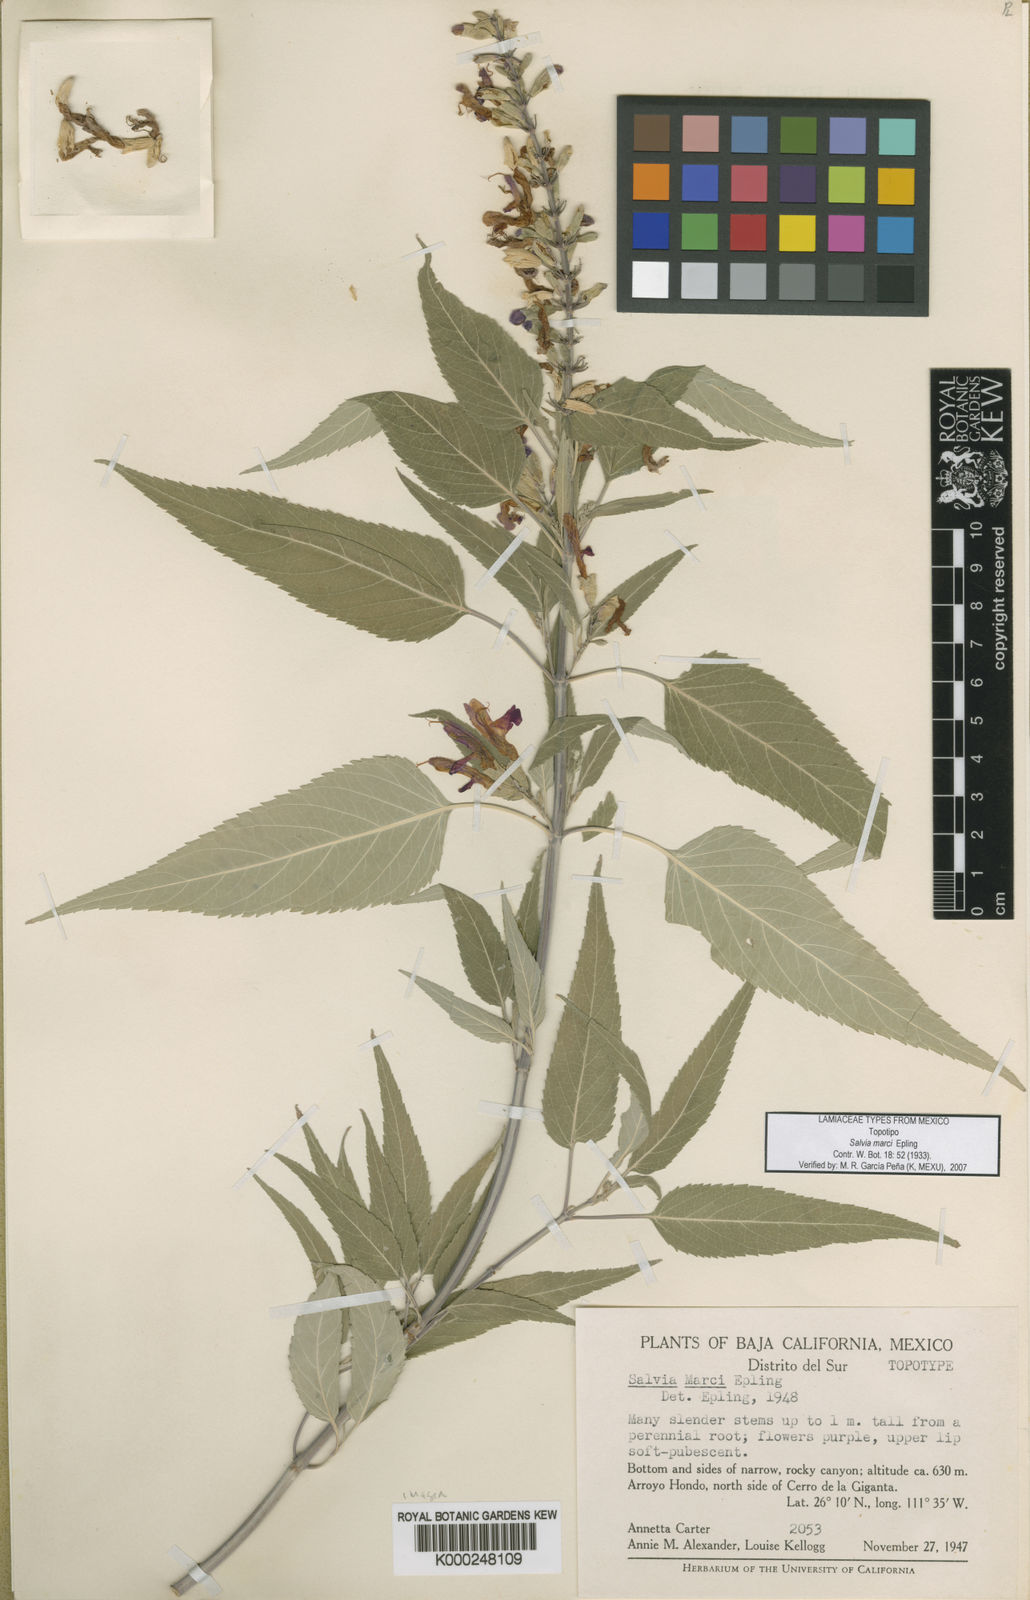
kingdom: Plantae
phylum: Tracheophyta
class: Magnoliopsida
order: Lamiales
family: Lamiaceae
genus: Salvia
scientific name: Salvia marci
